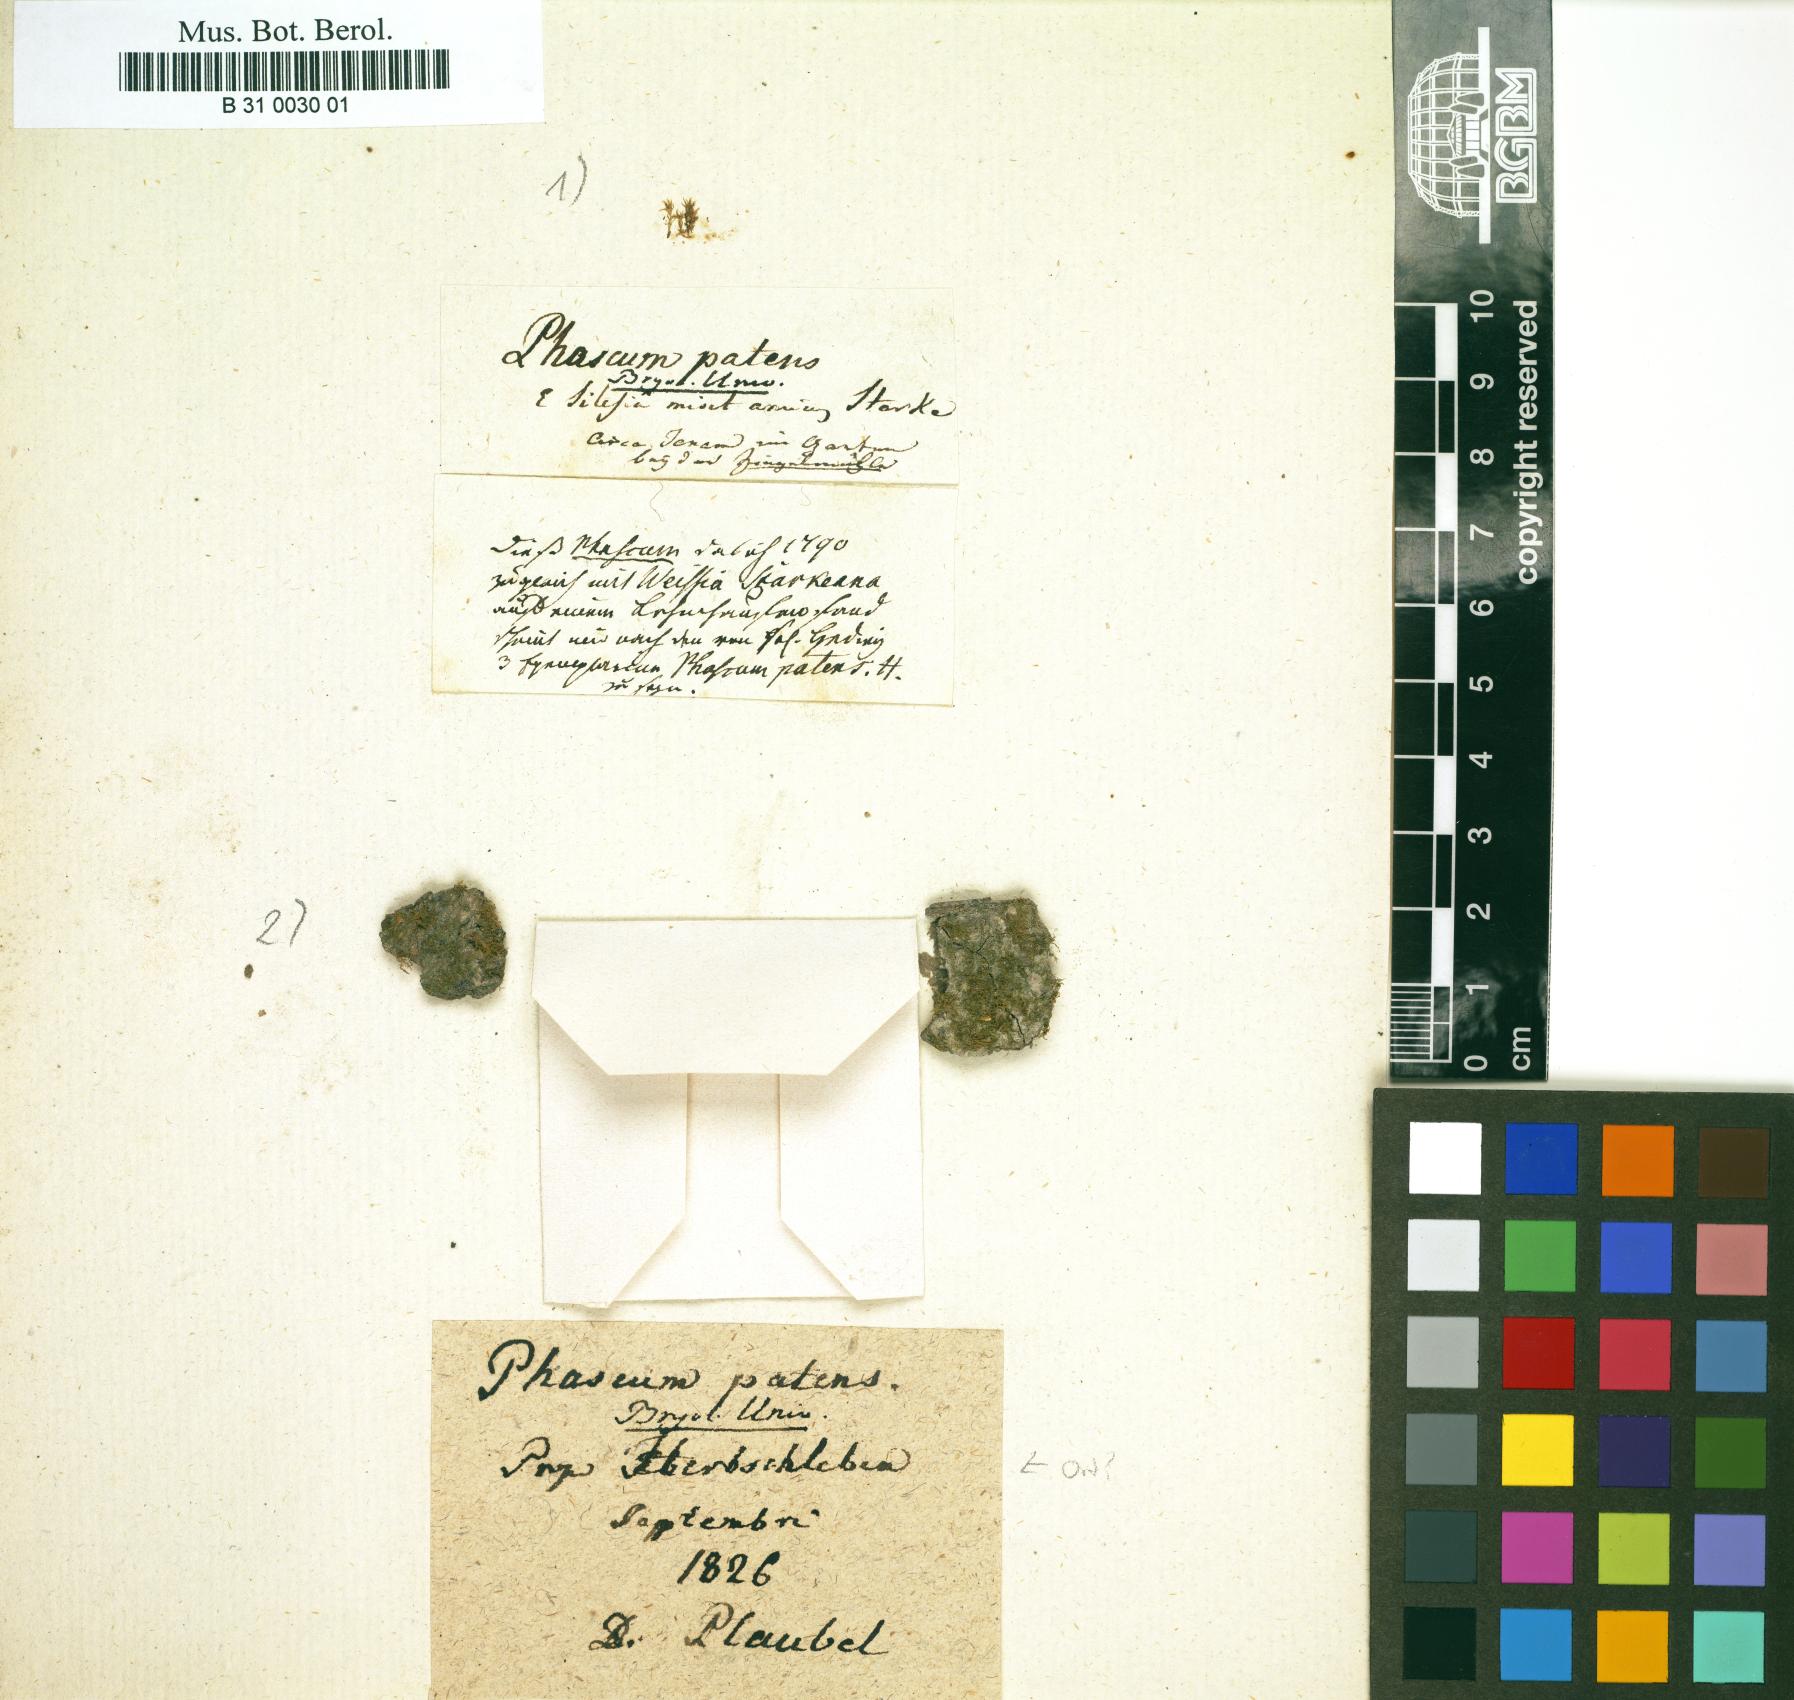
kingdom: Plantae
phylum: Bryophyta
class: Bryopsida
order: Funariales
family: Funariaceae
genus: Physcomitrium
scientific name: Physcomitrium patens
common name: Spreading earth-moss
